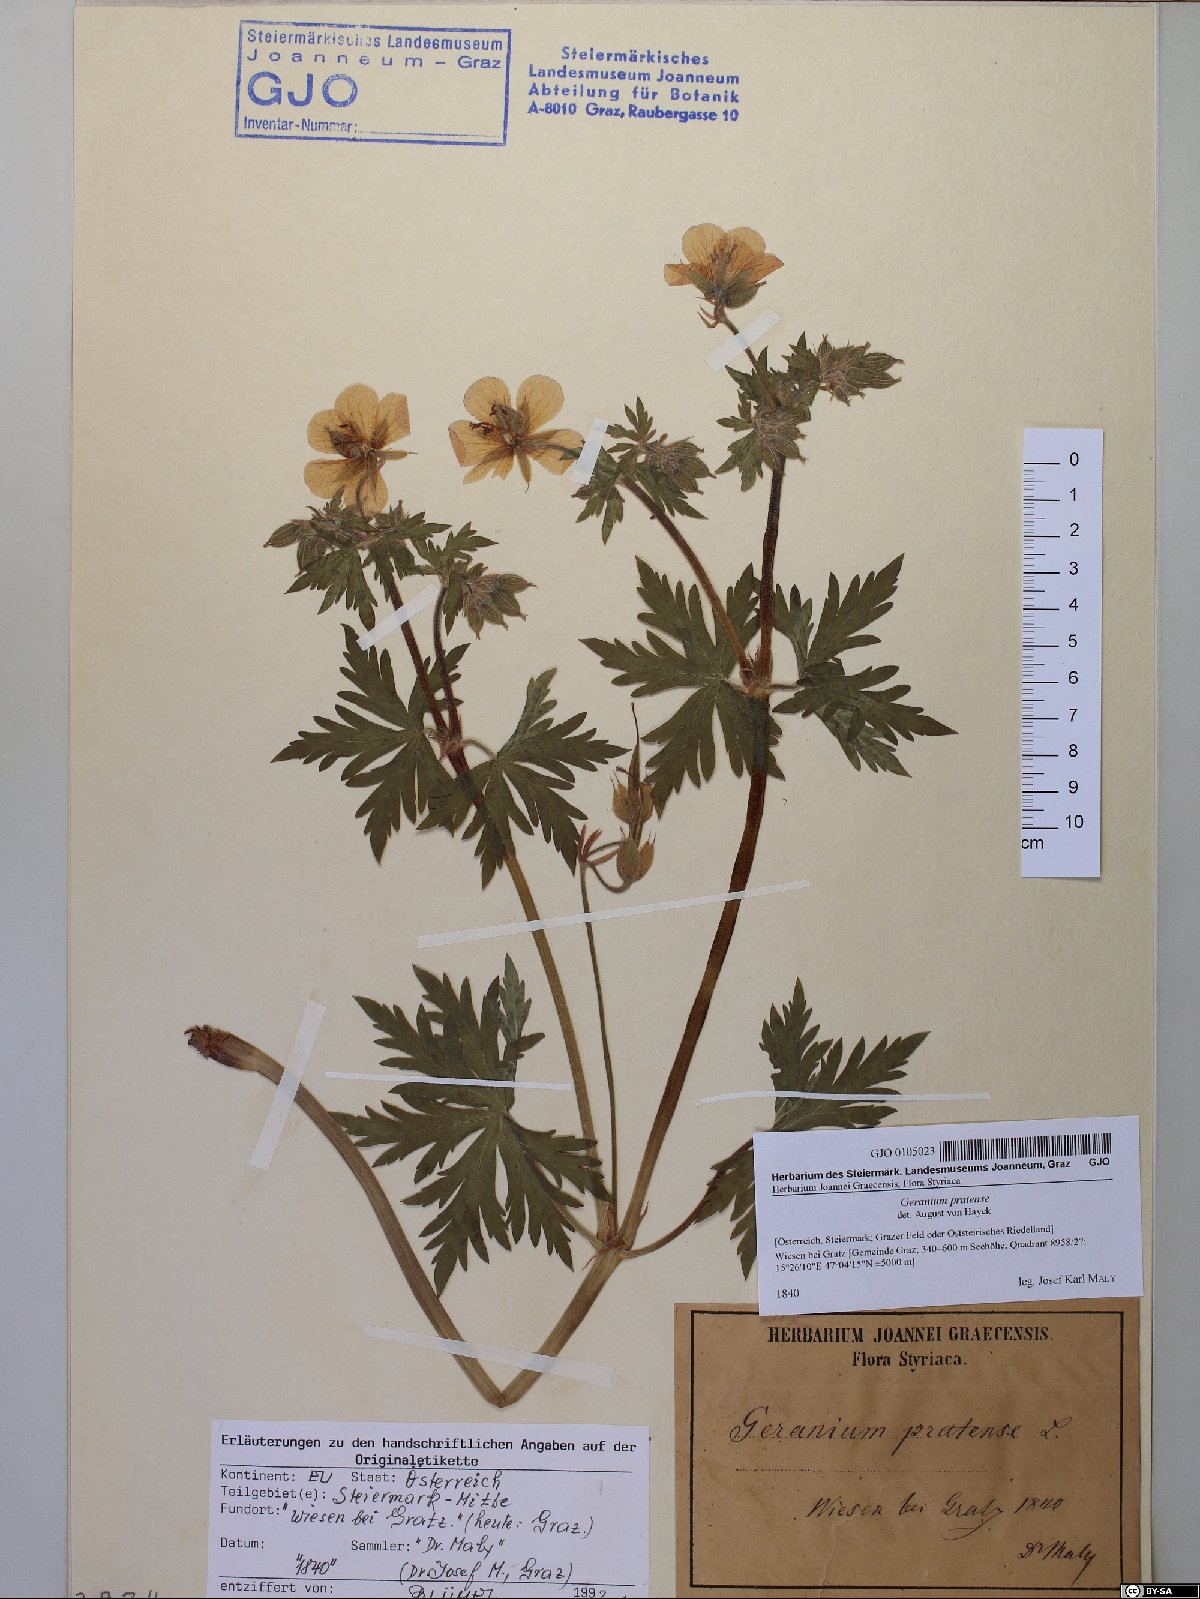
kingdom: Plantae
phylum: Tracheophyta
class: Magnoliopsida
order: Geraniales
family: Geraniaceae
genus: Geranium
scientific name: Geranium pratense
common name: Meadow crane's-bill
